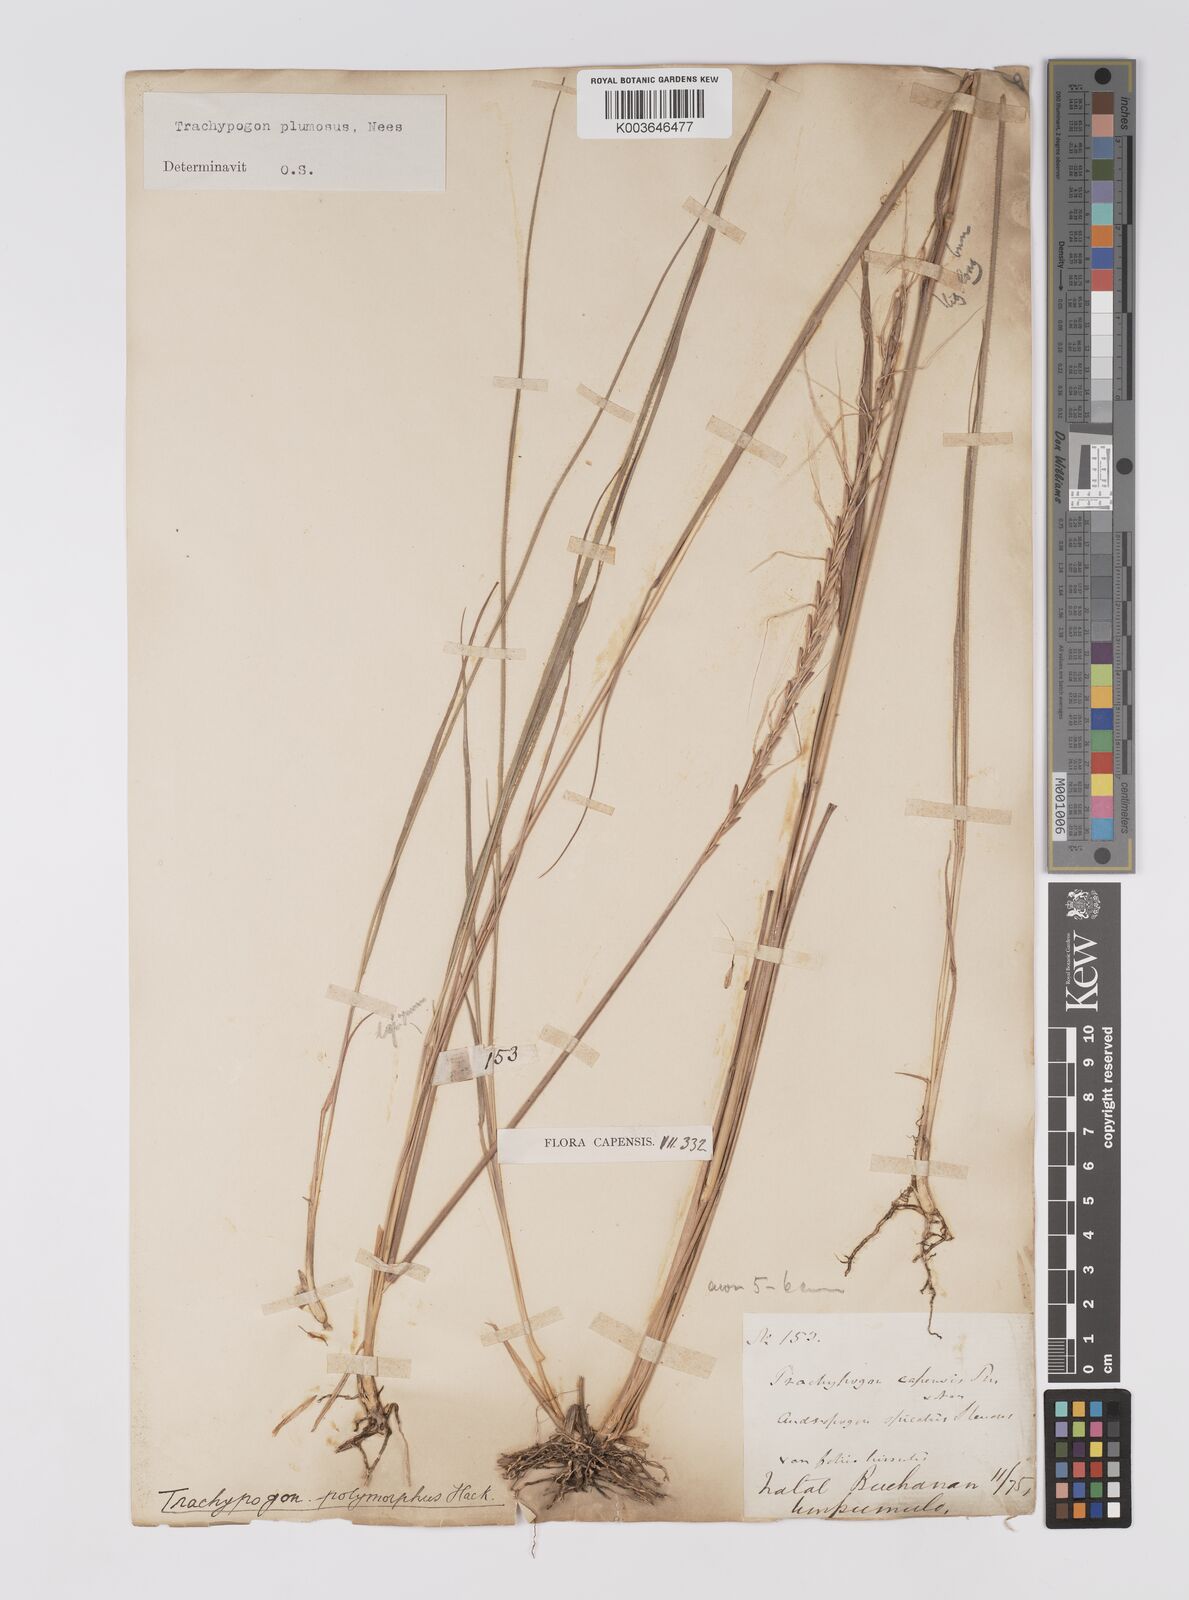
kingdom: Plantae
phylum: Tracheophyta
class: Liliopsida
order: Poales
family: Poaceae
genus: Trachypogon
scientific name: Trachypogon spicatus
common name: Crinkle-awn
